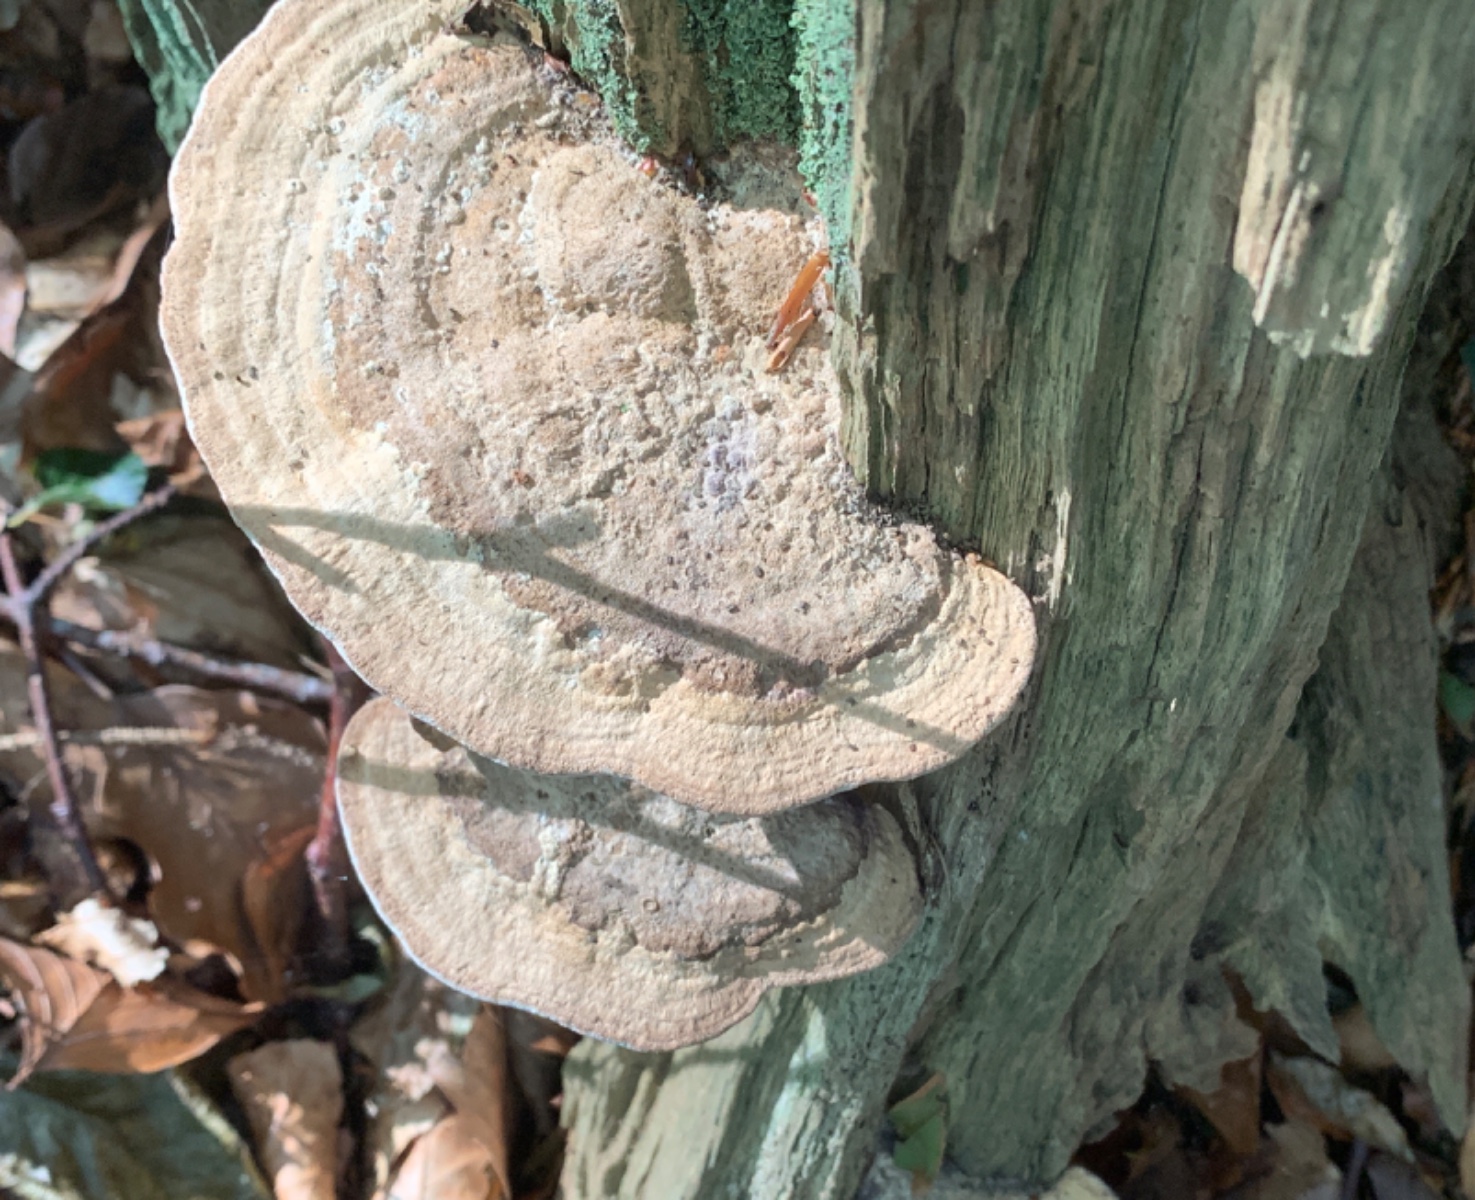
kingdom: Fungi
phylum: Basidiomycota
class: Agaricomycetes
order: Polyporales
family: Fomitopsidaceae
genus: Daedalea
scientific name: Daedalea quercina
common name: ege-labyrintsvamp
